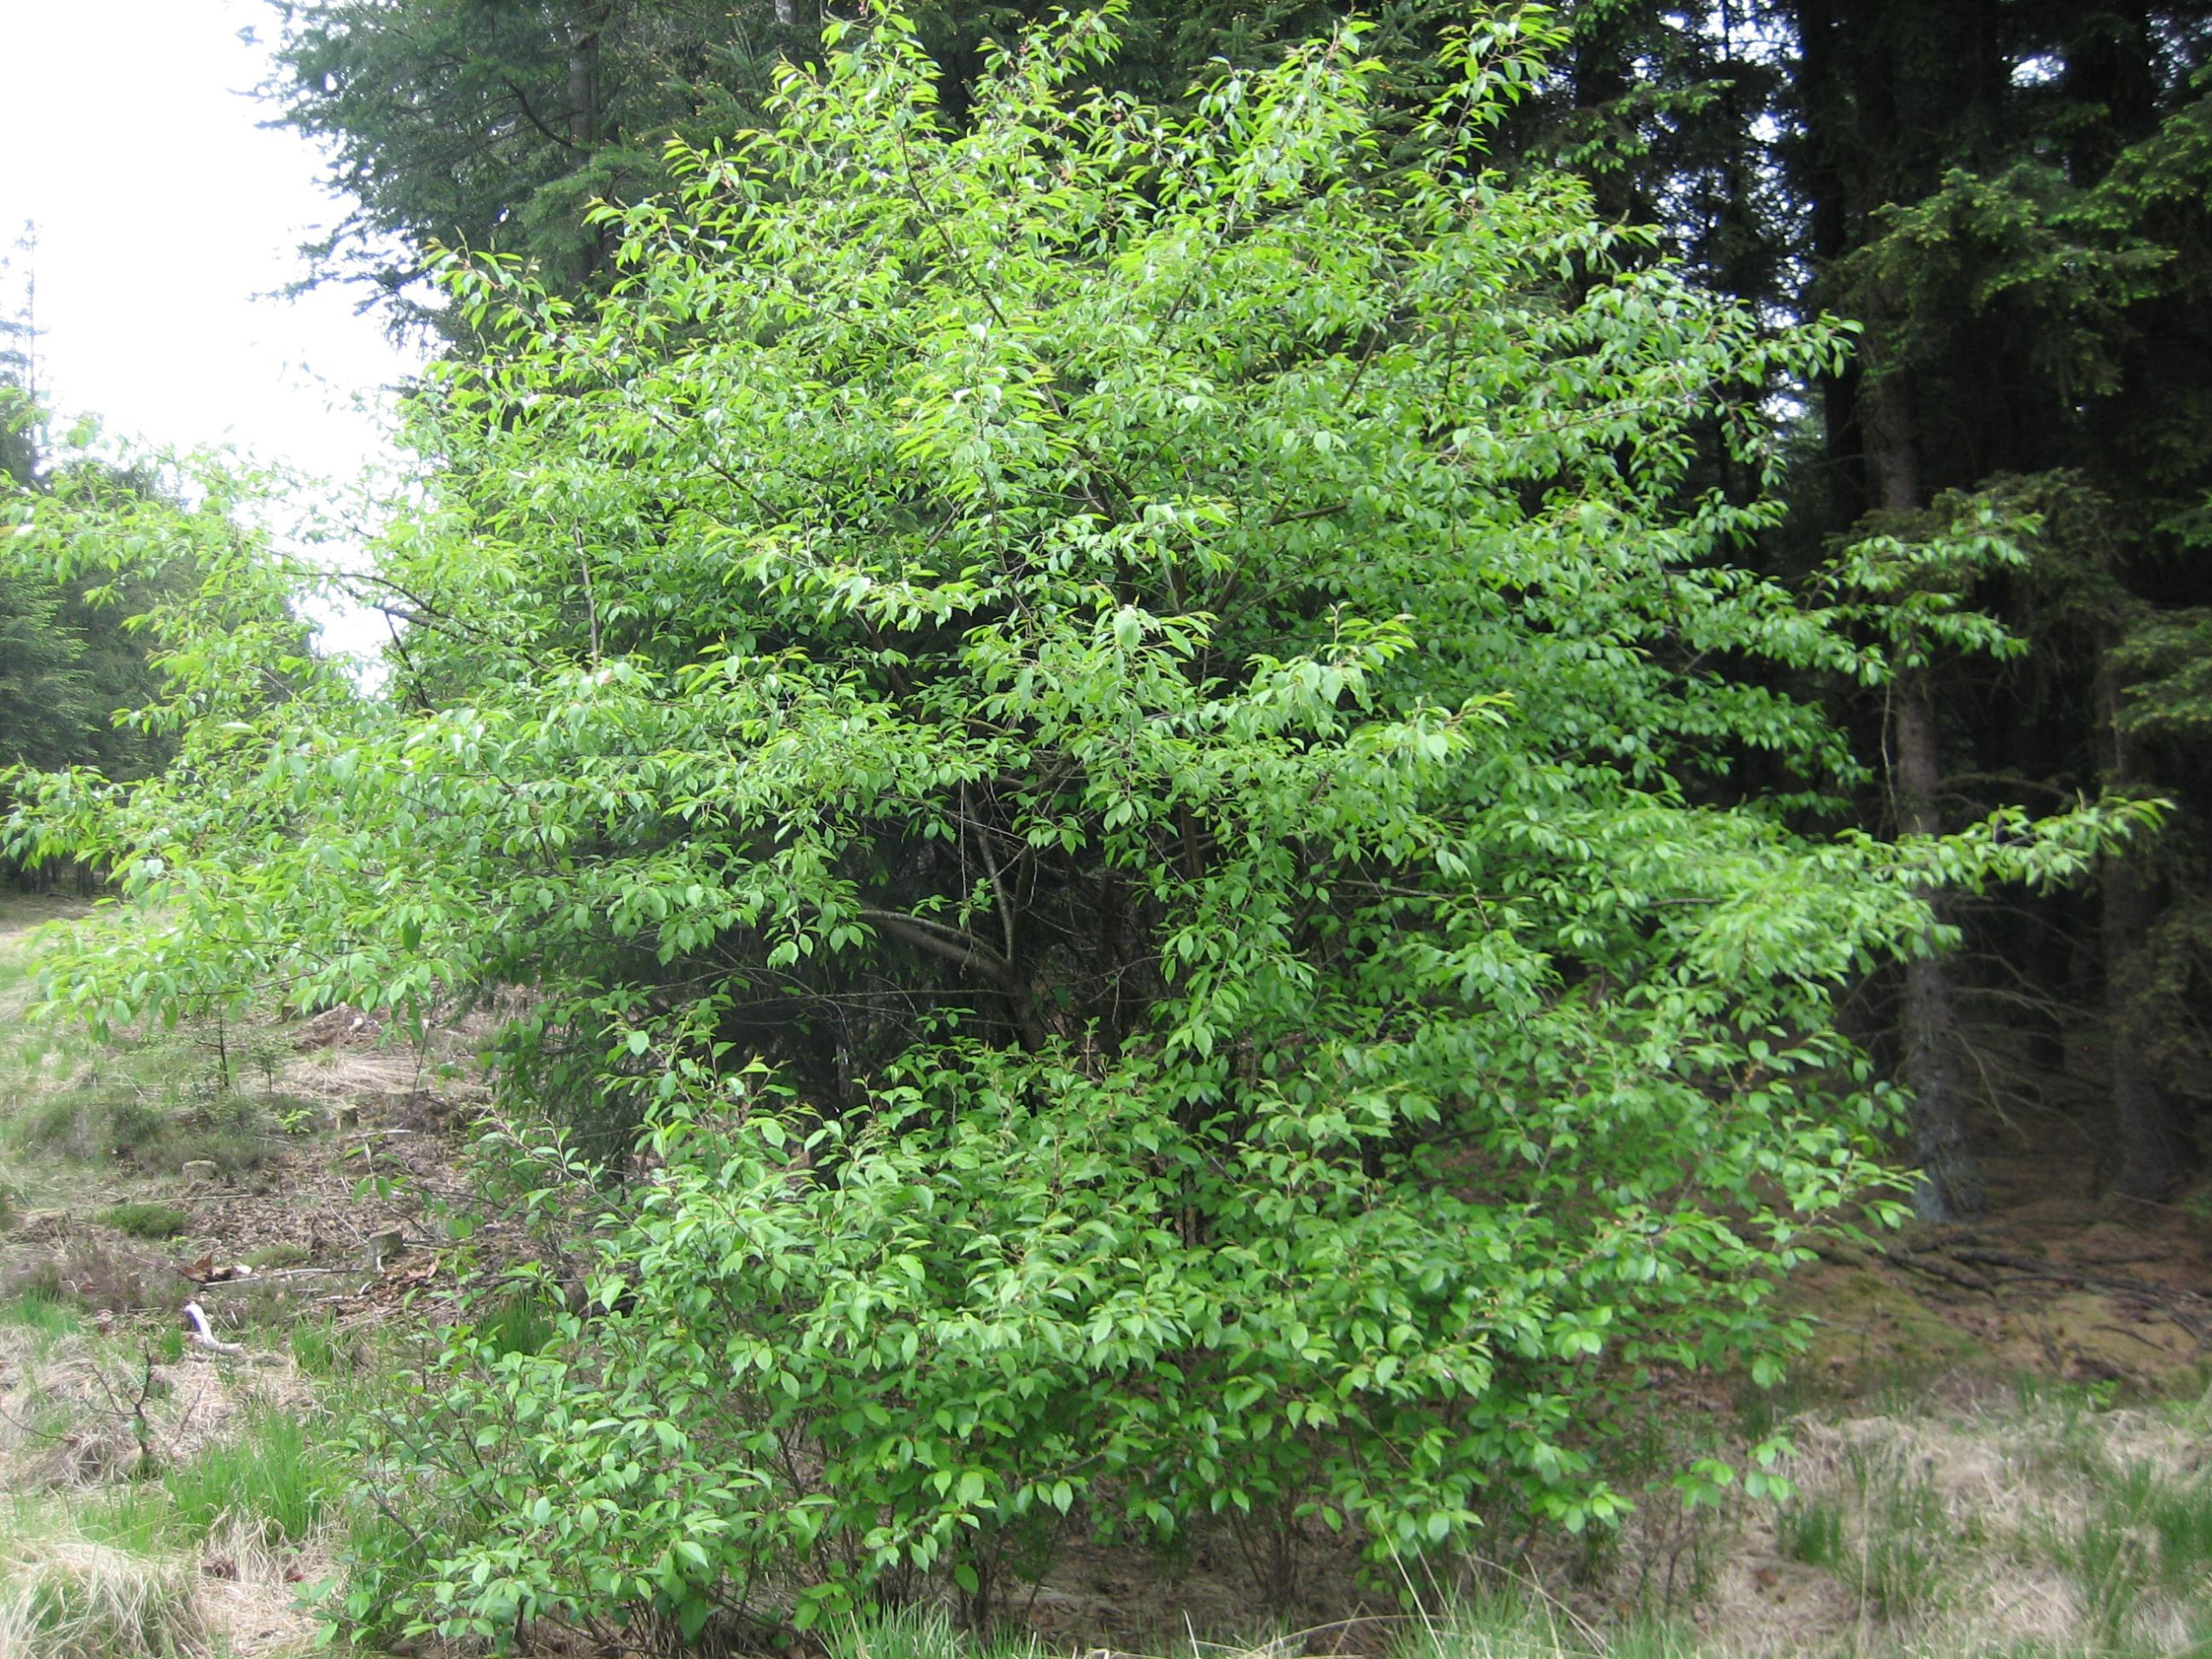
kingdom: Plantae
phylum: Tracheophyta
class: Magnoliopsida
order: Rosales
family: Rosaceae
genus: Prunus
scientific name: Prunus serotina
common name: Glansbladet hæg
